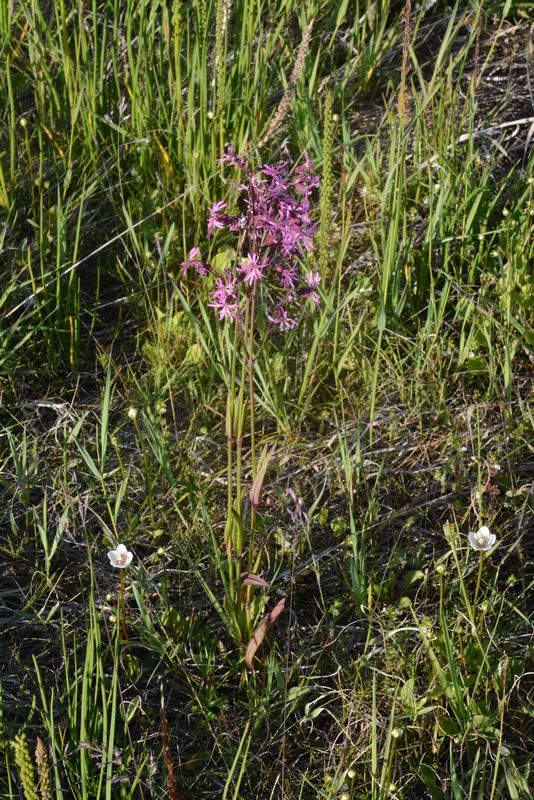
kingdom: Plantae
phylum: Tracheophyta
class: Magnoliopsida
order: Caryophyllales
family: Caryophyllaceae
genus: Silene
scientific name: Silene flos-cuculi
